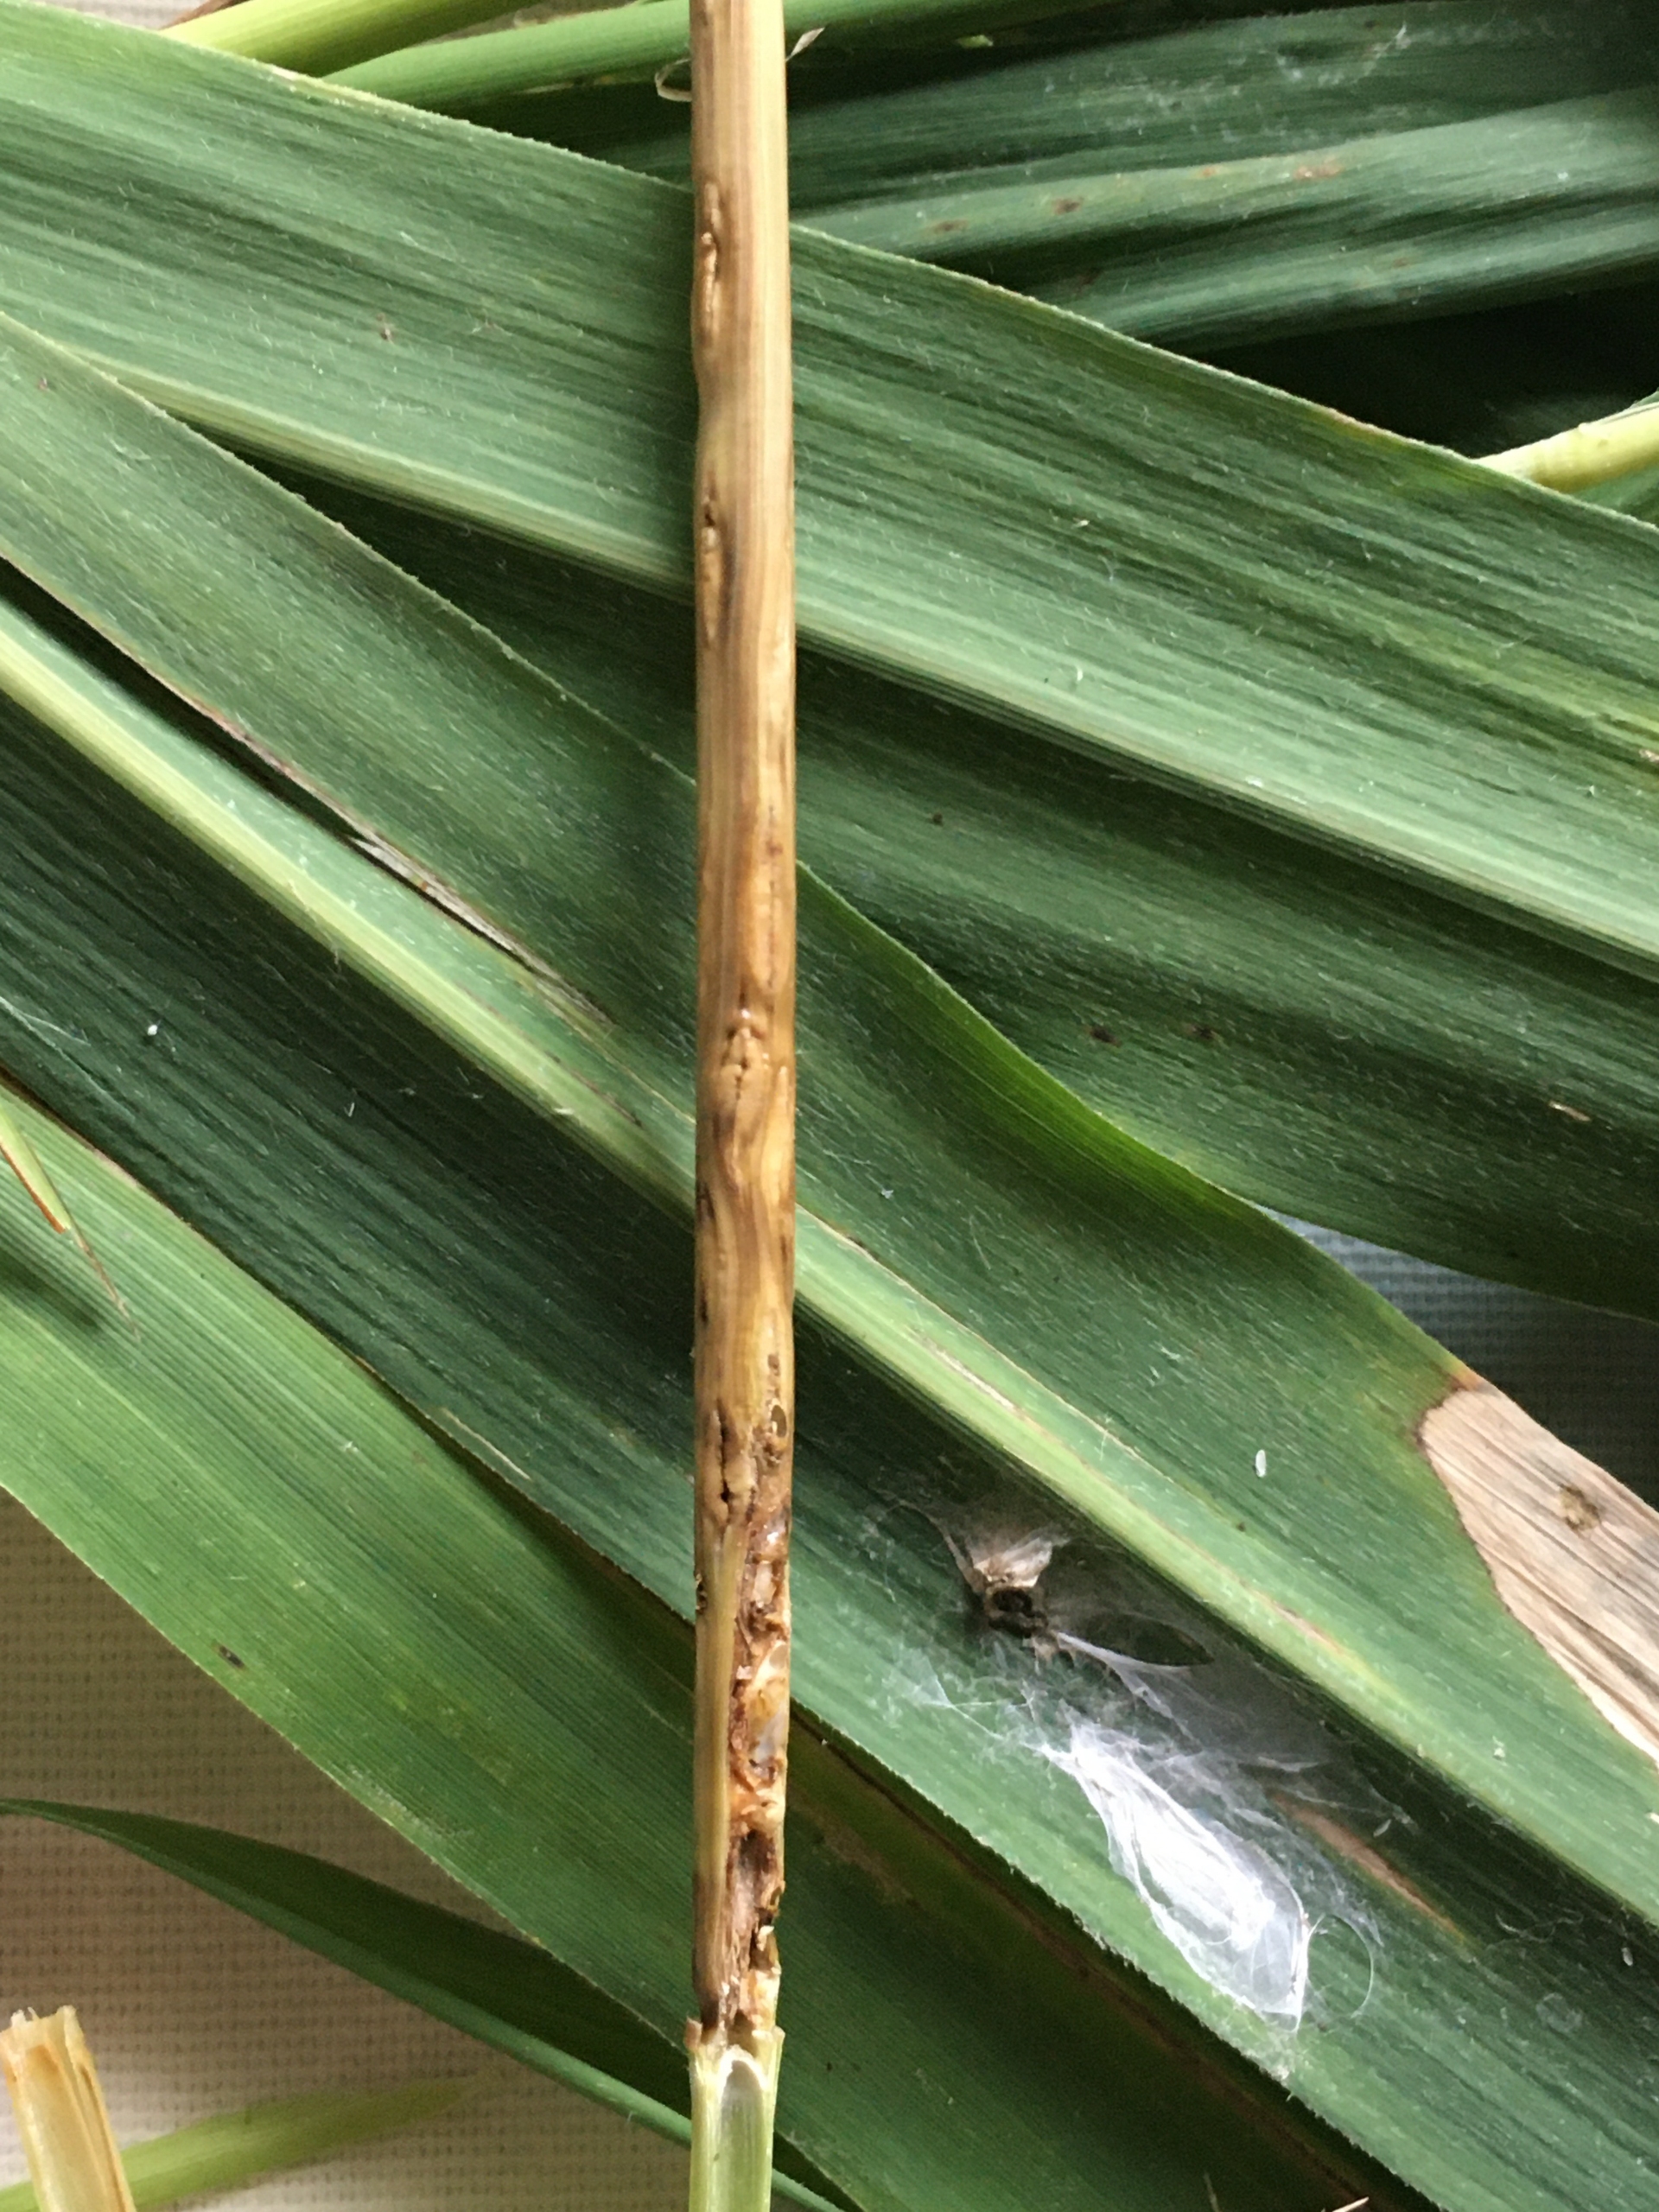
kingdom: Animalia
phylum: Arthropoda
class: Insecta
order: Diptera
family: Cecidomyiidae
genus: Giraudiella
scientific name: Giraudiella inclusa
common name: Riskorngalmyg
